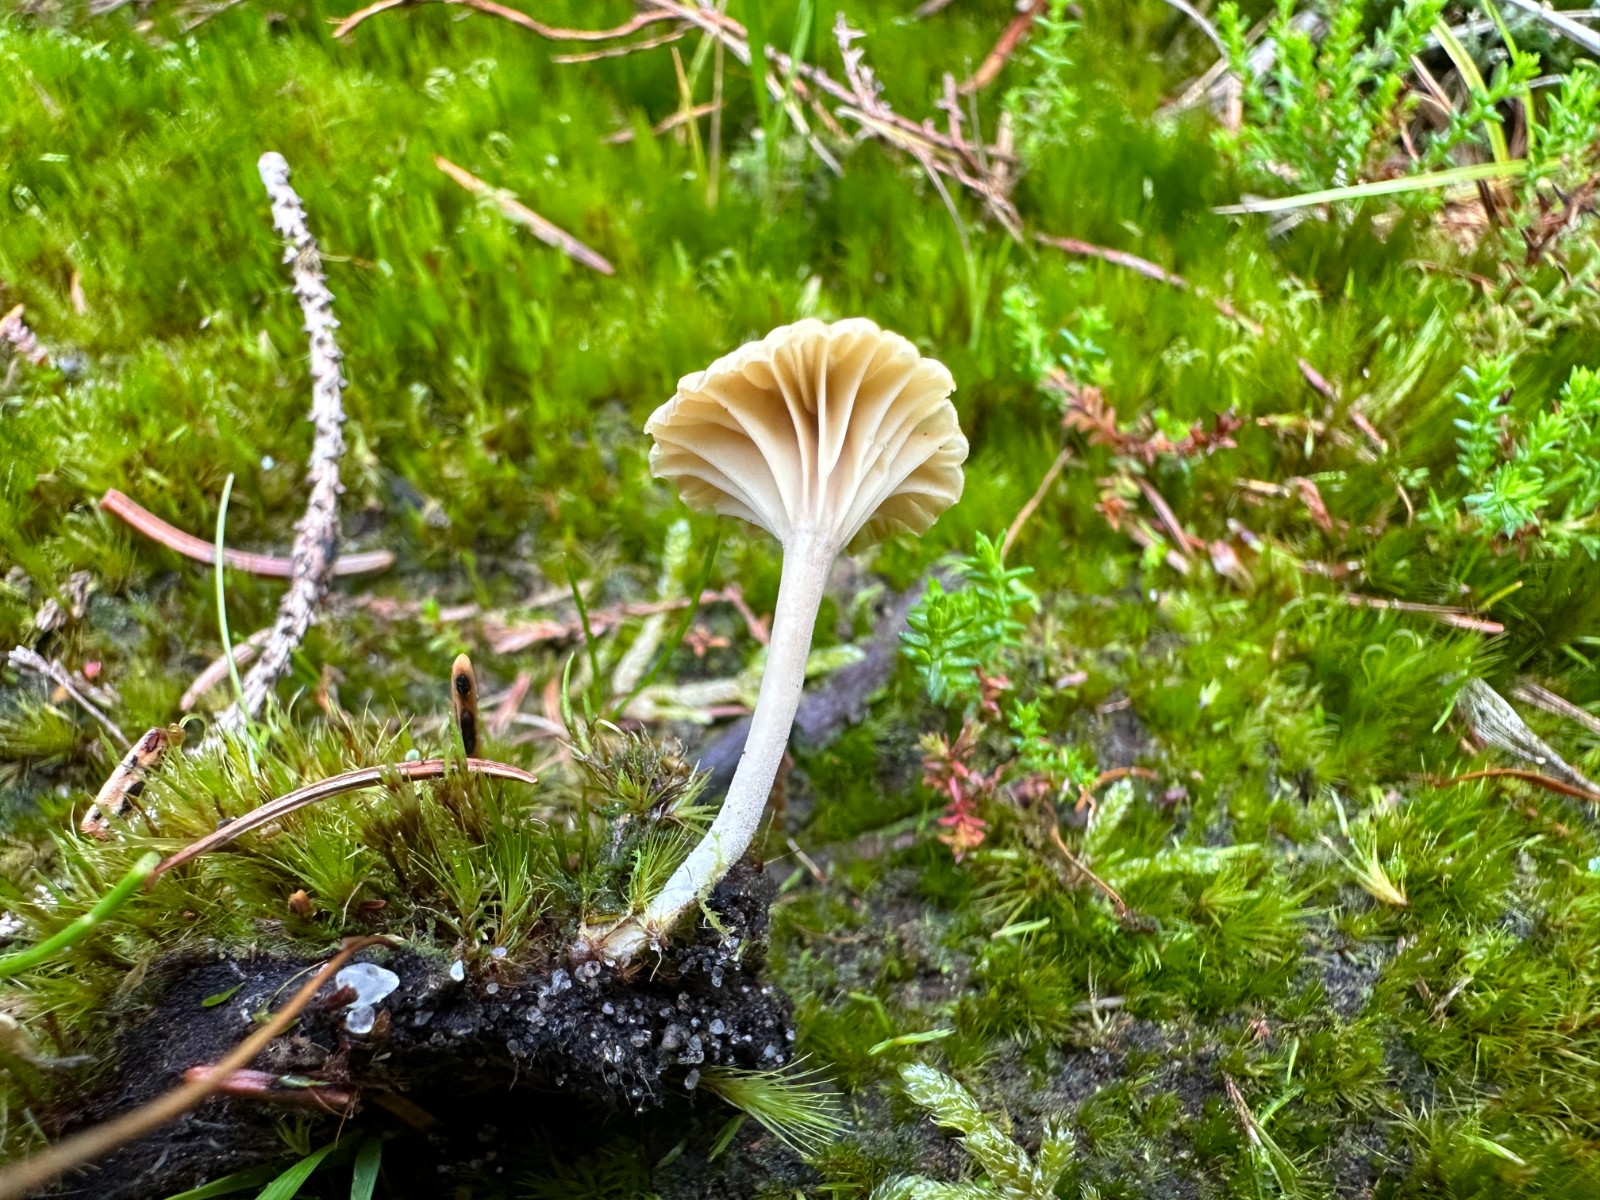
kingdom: Fungi
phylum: Basidiomycota
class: Agaricomycetes
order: Agaricales
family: Hygrophoraceae
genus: Lichenomphalia
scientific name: Lichenomphalia umbellifera
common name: tørve-lavhat
